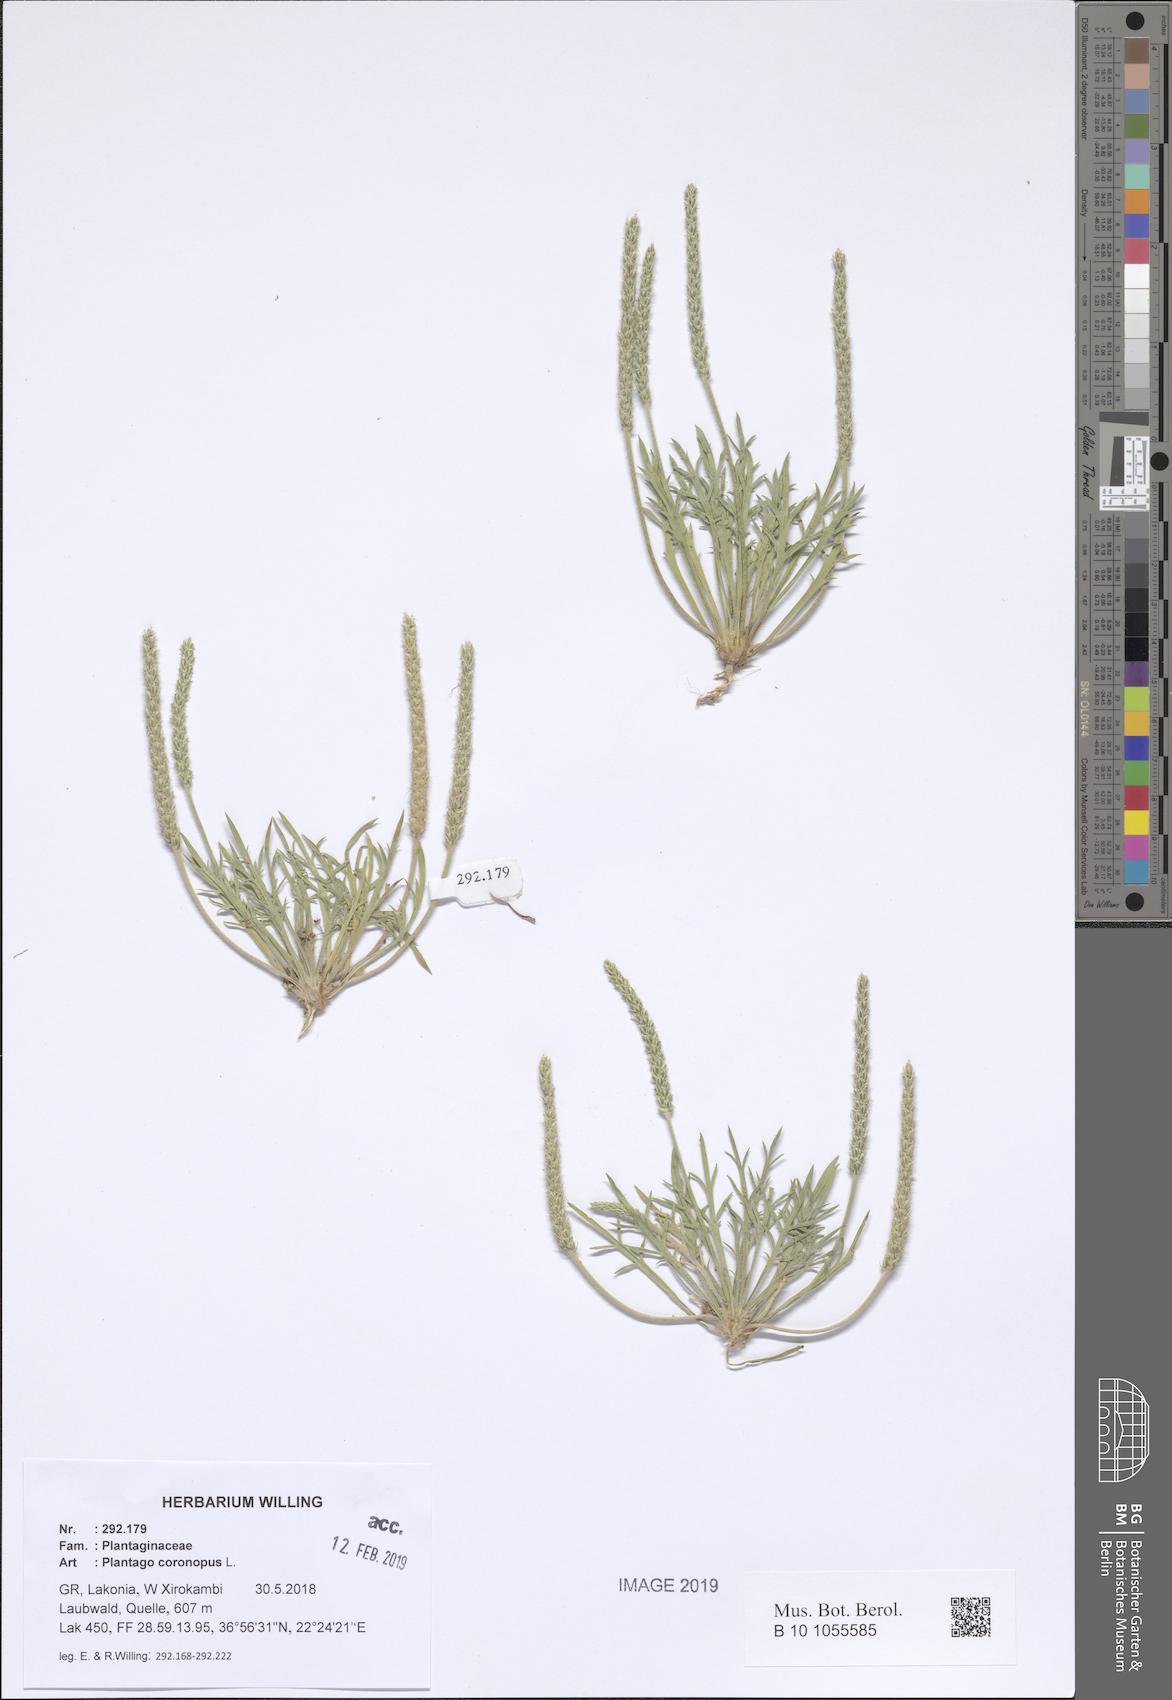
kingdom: Plantae
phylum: Tracheophyta
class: Magnoliopsida
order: Lamiales
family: Plantaginaceae
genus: Plantago
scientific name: Plantago coronopus
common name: Buck's-horn plantain
